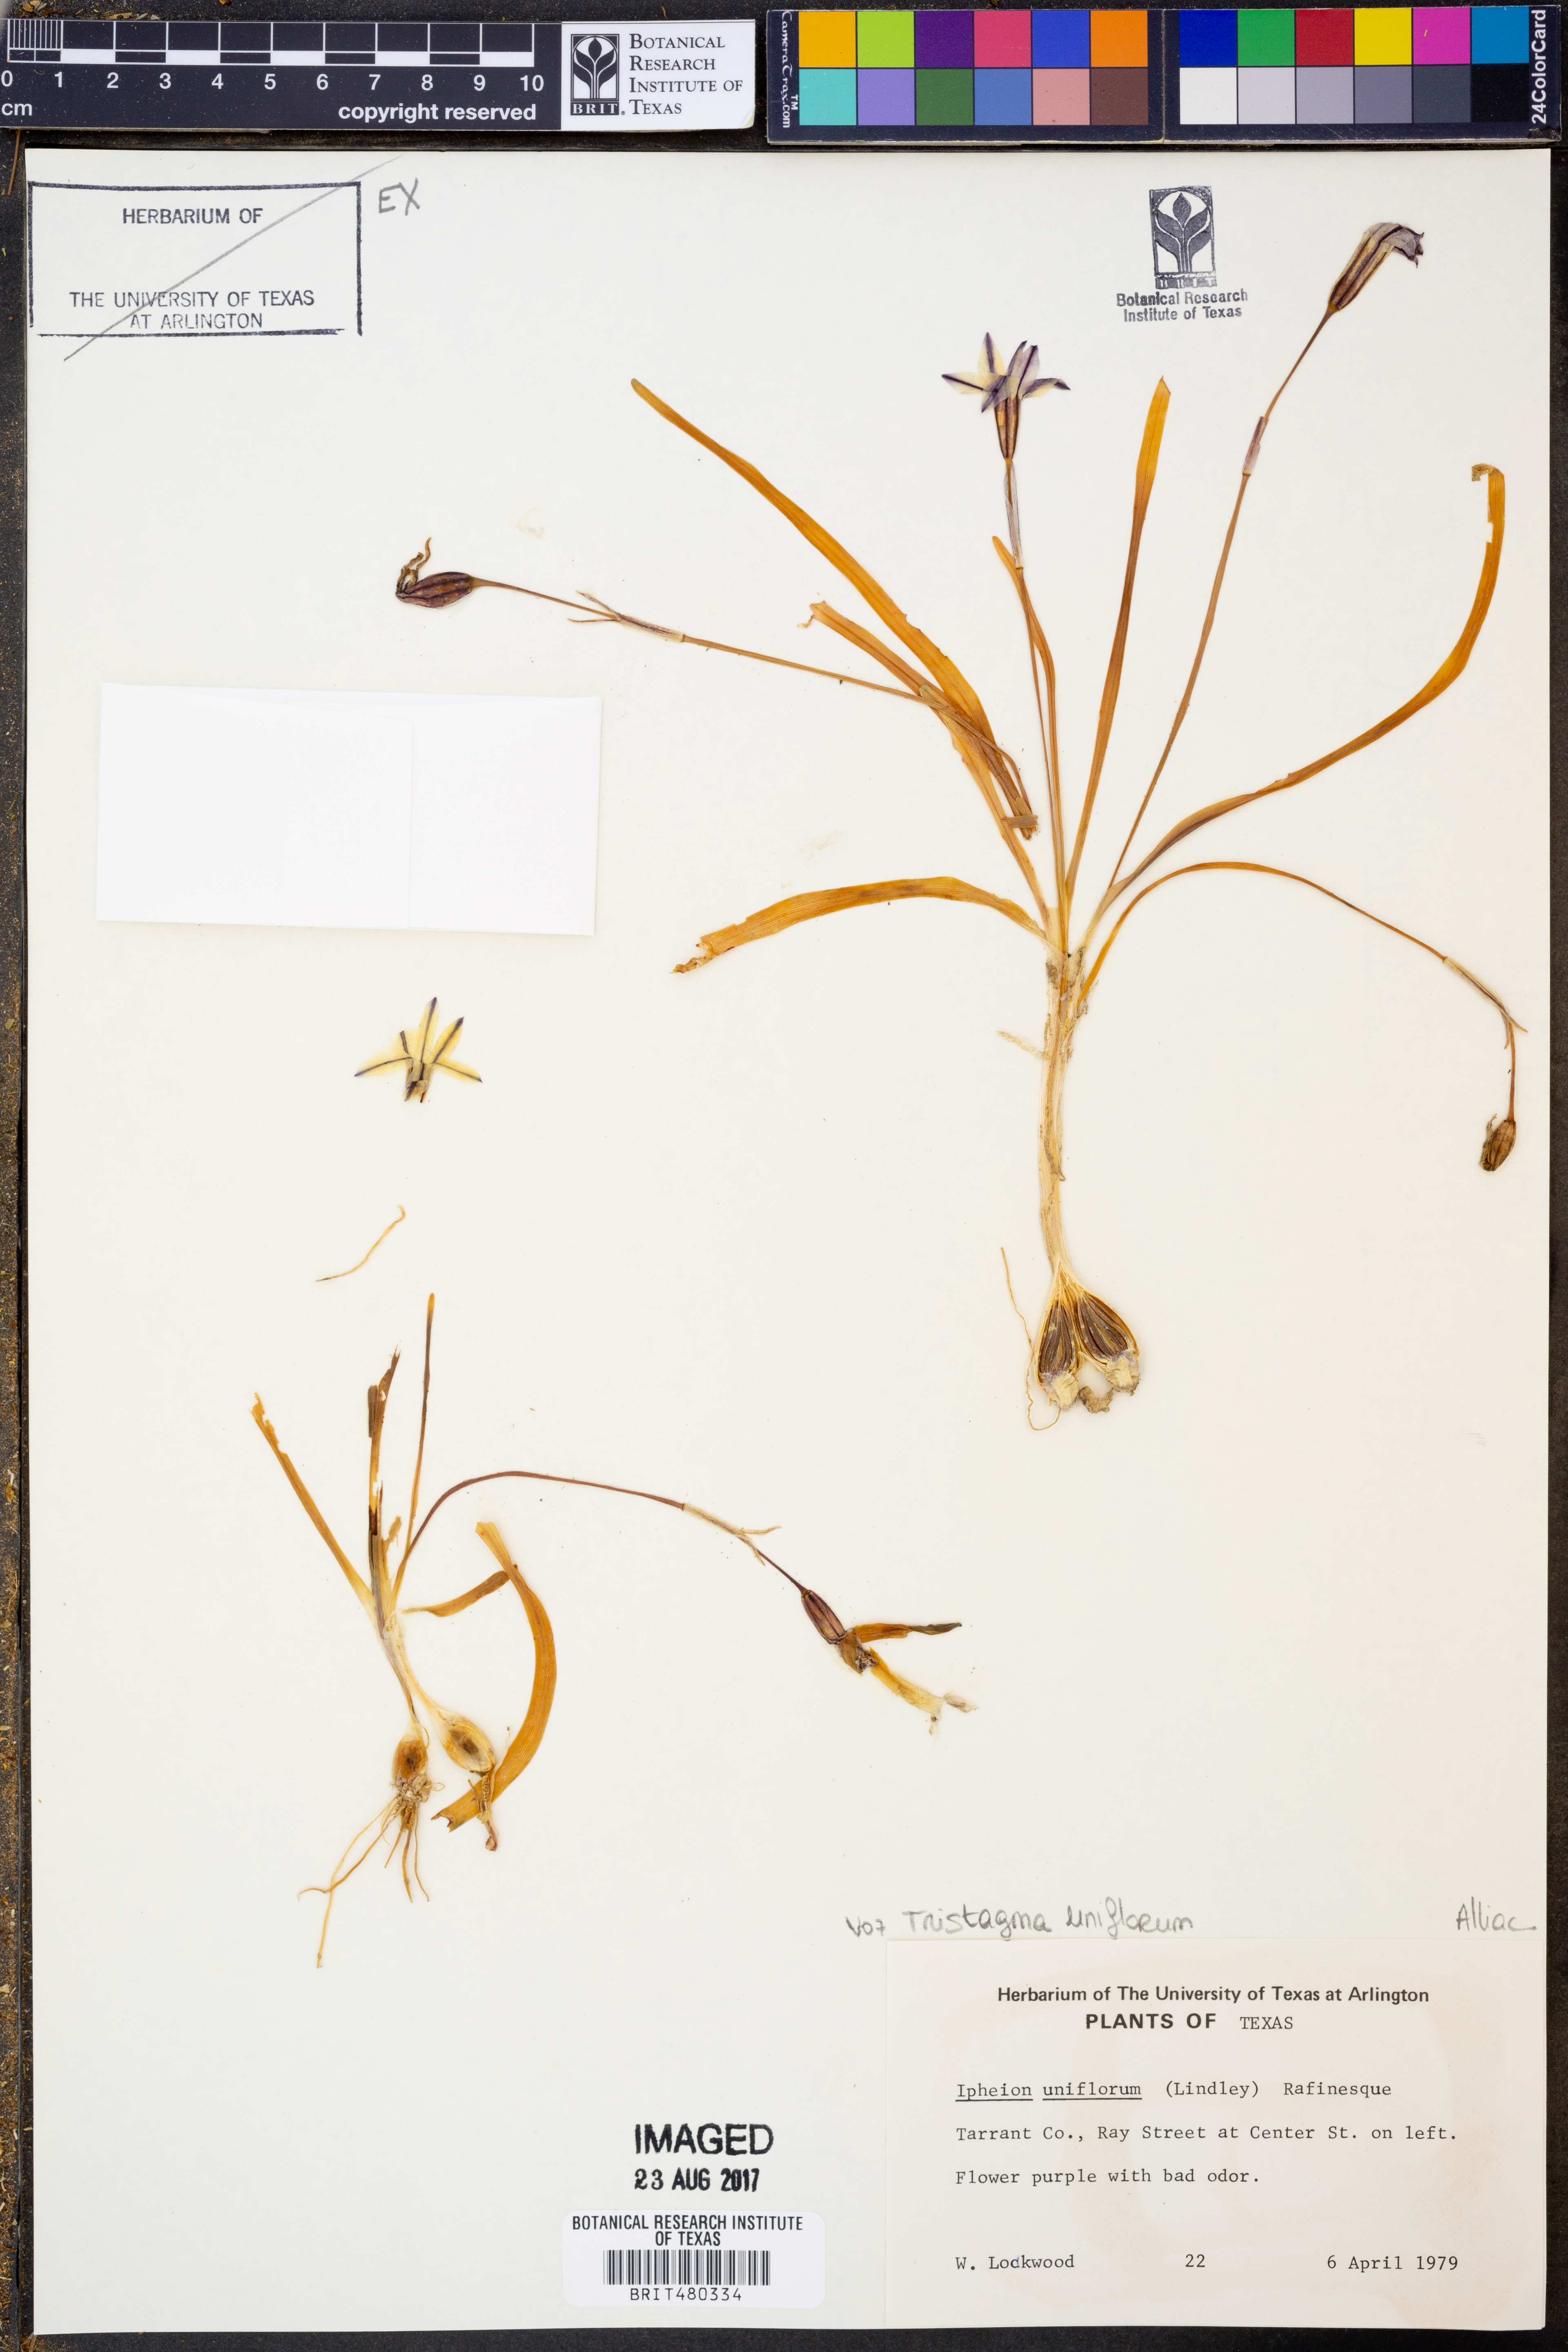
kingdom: Plantae
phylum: Tracheophyta
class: Liliopsida
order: Asparagales
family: Amaryllidaceae
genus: Ipheion
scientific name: Ipheion uniflorum
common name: Spring starflower
